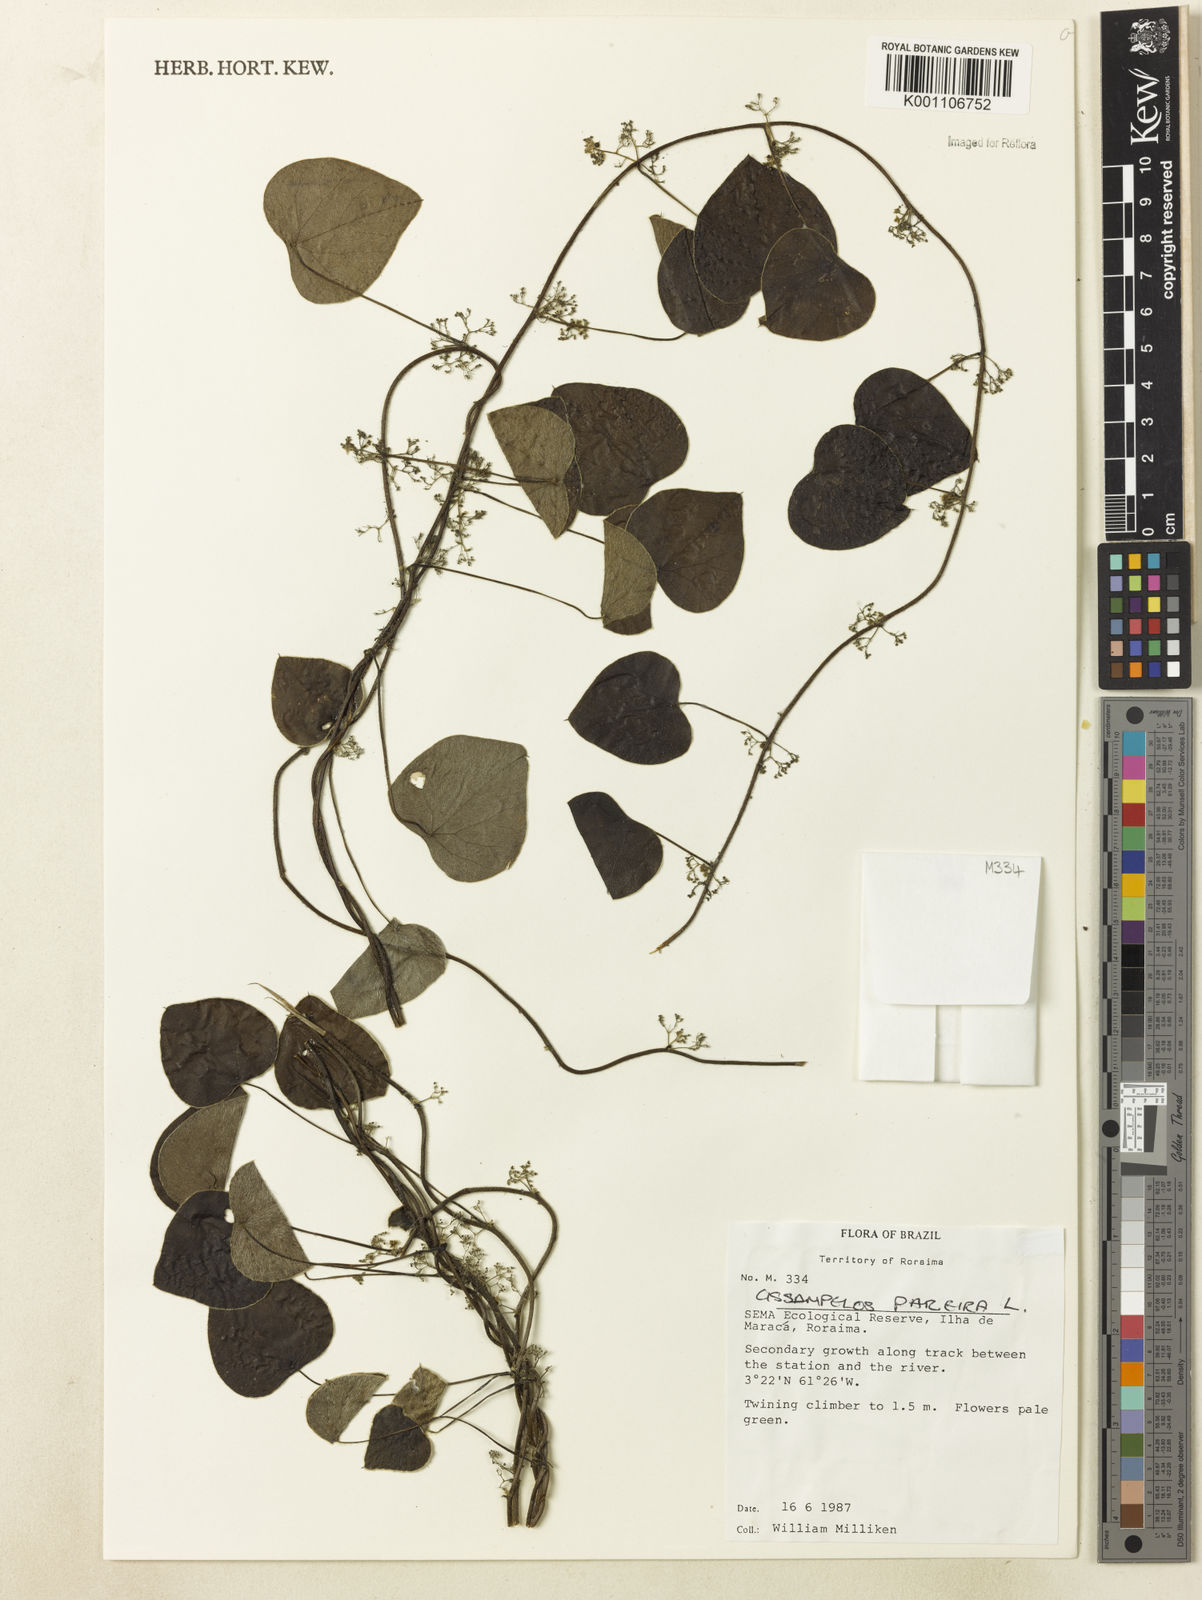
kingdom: Plantae
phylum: Tracheophyta
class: Magnoliopsida
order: Ranunculales
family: Menispermaceae
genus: Cissampelos
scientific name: Cissampelos pareira
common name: Velvetleaf
